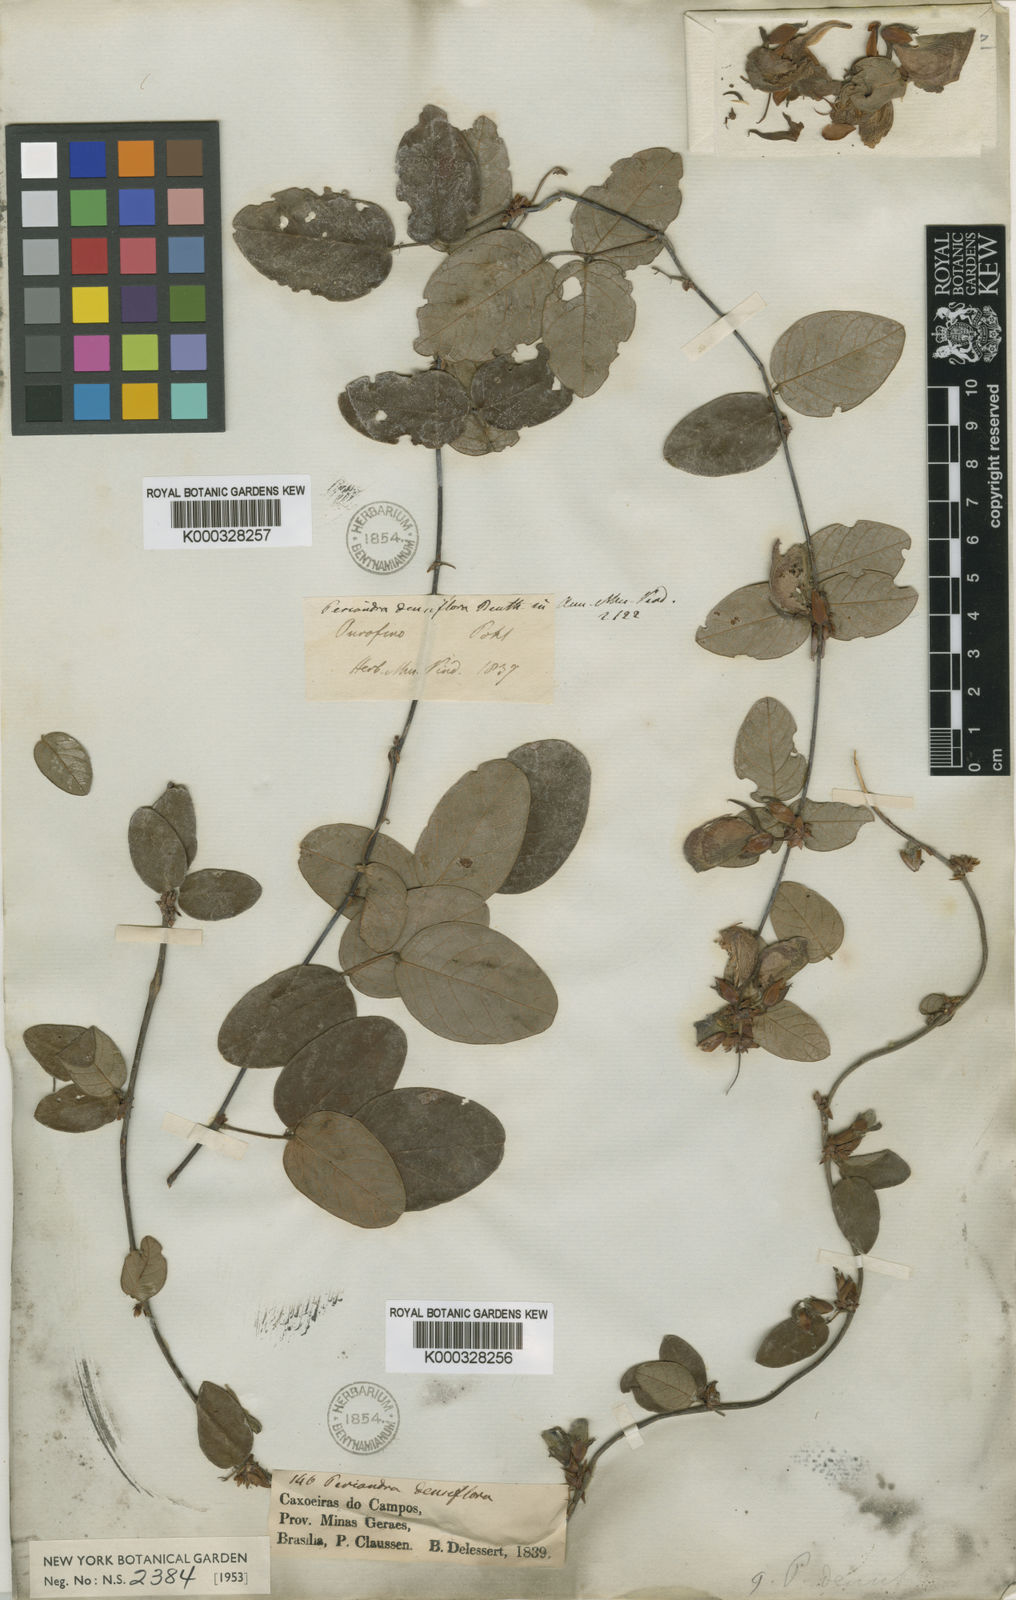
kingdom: Plantae
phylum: Tracheophyta
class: Magnoliopsida
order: Fabales
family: Fabaceae
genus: Periandra
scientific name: Periandra densiflora
